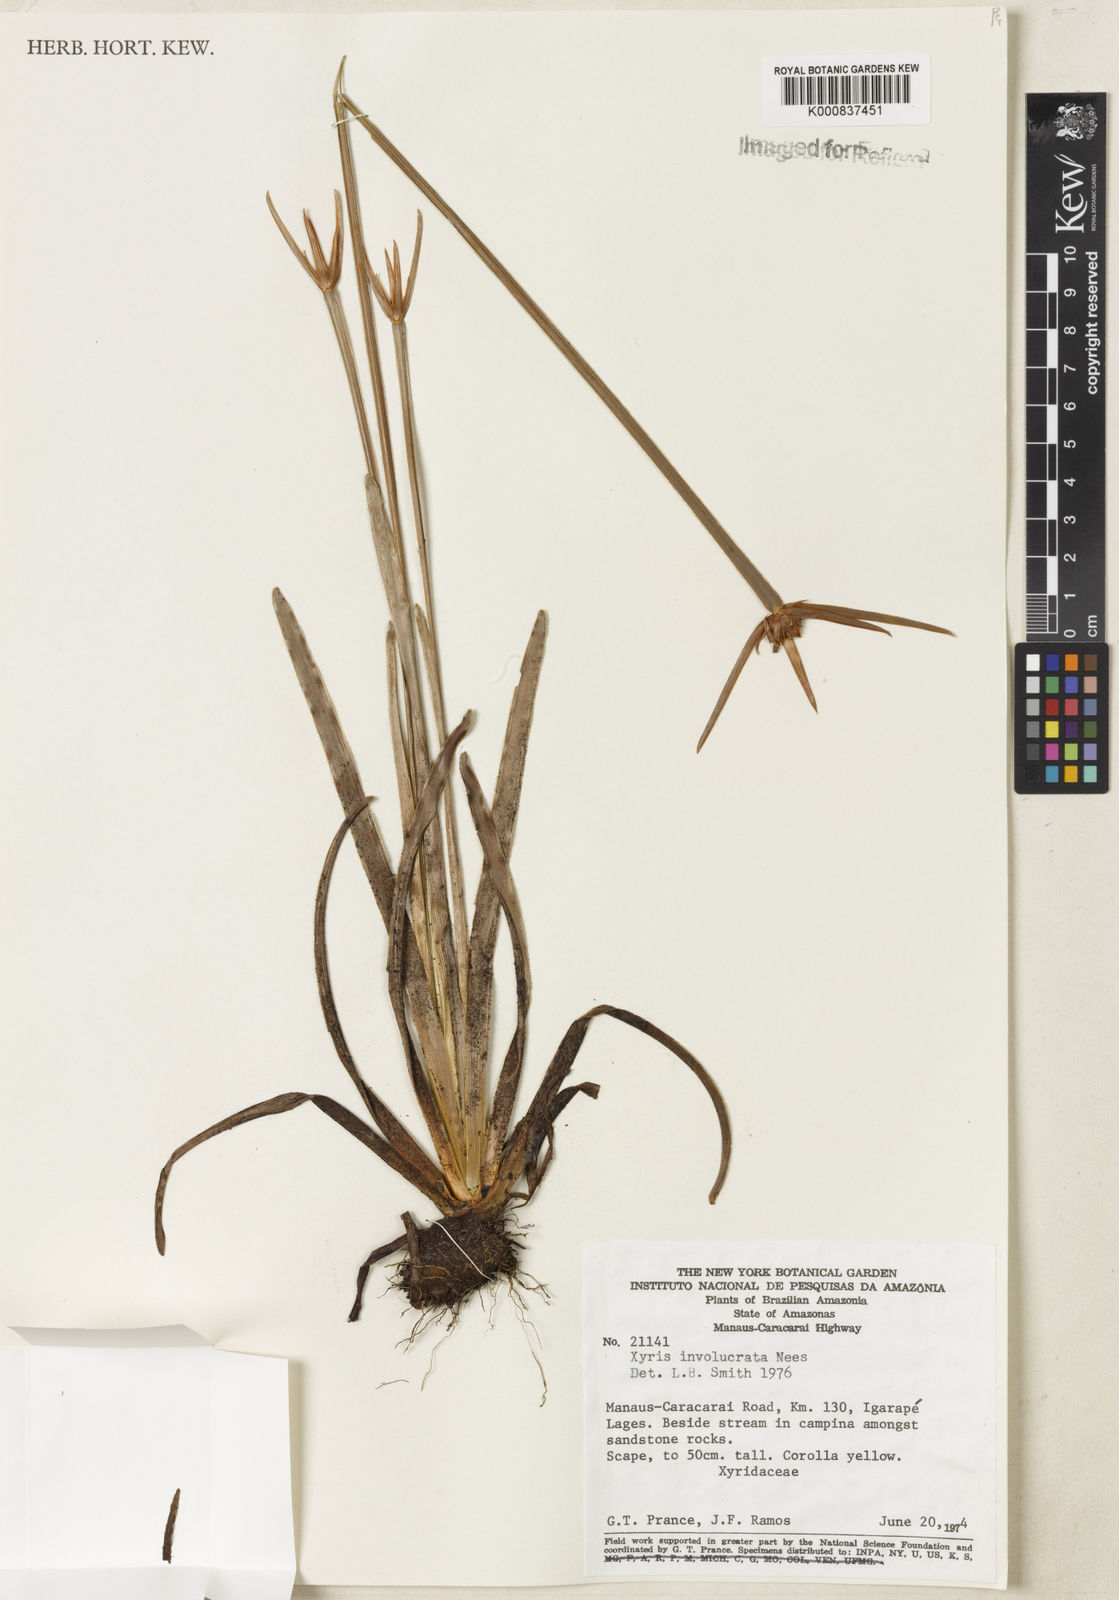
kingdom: Plantae
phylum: Tracheophyta
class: Liliopsida
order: Poales
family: Xyridaceae
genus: Xyris
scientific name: Xyris involucrata
